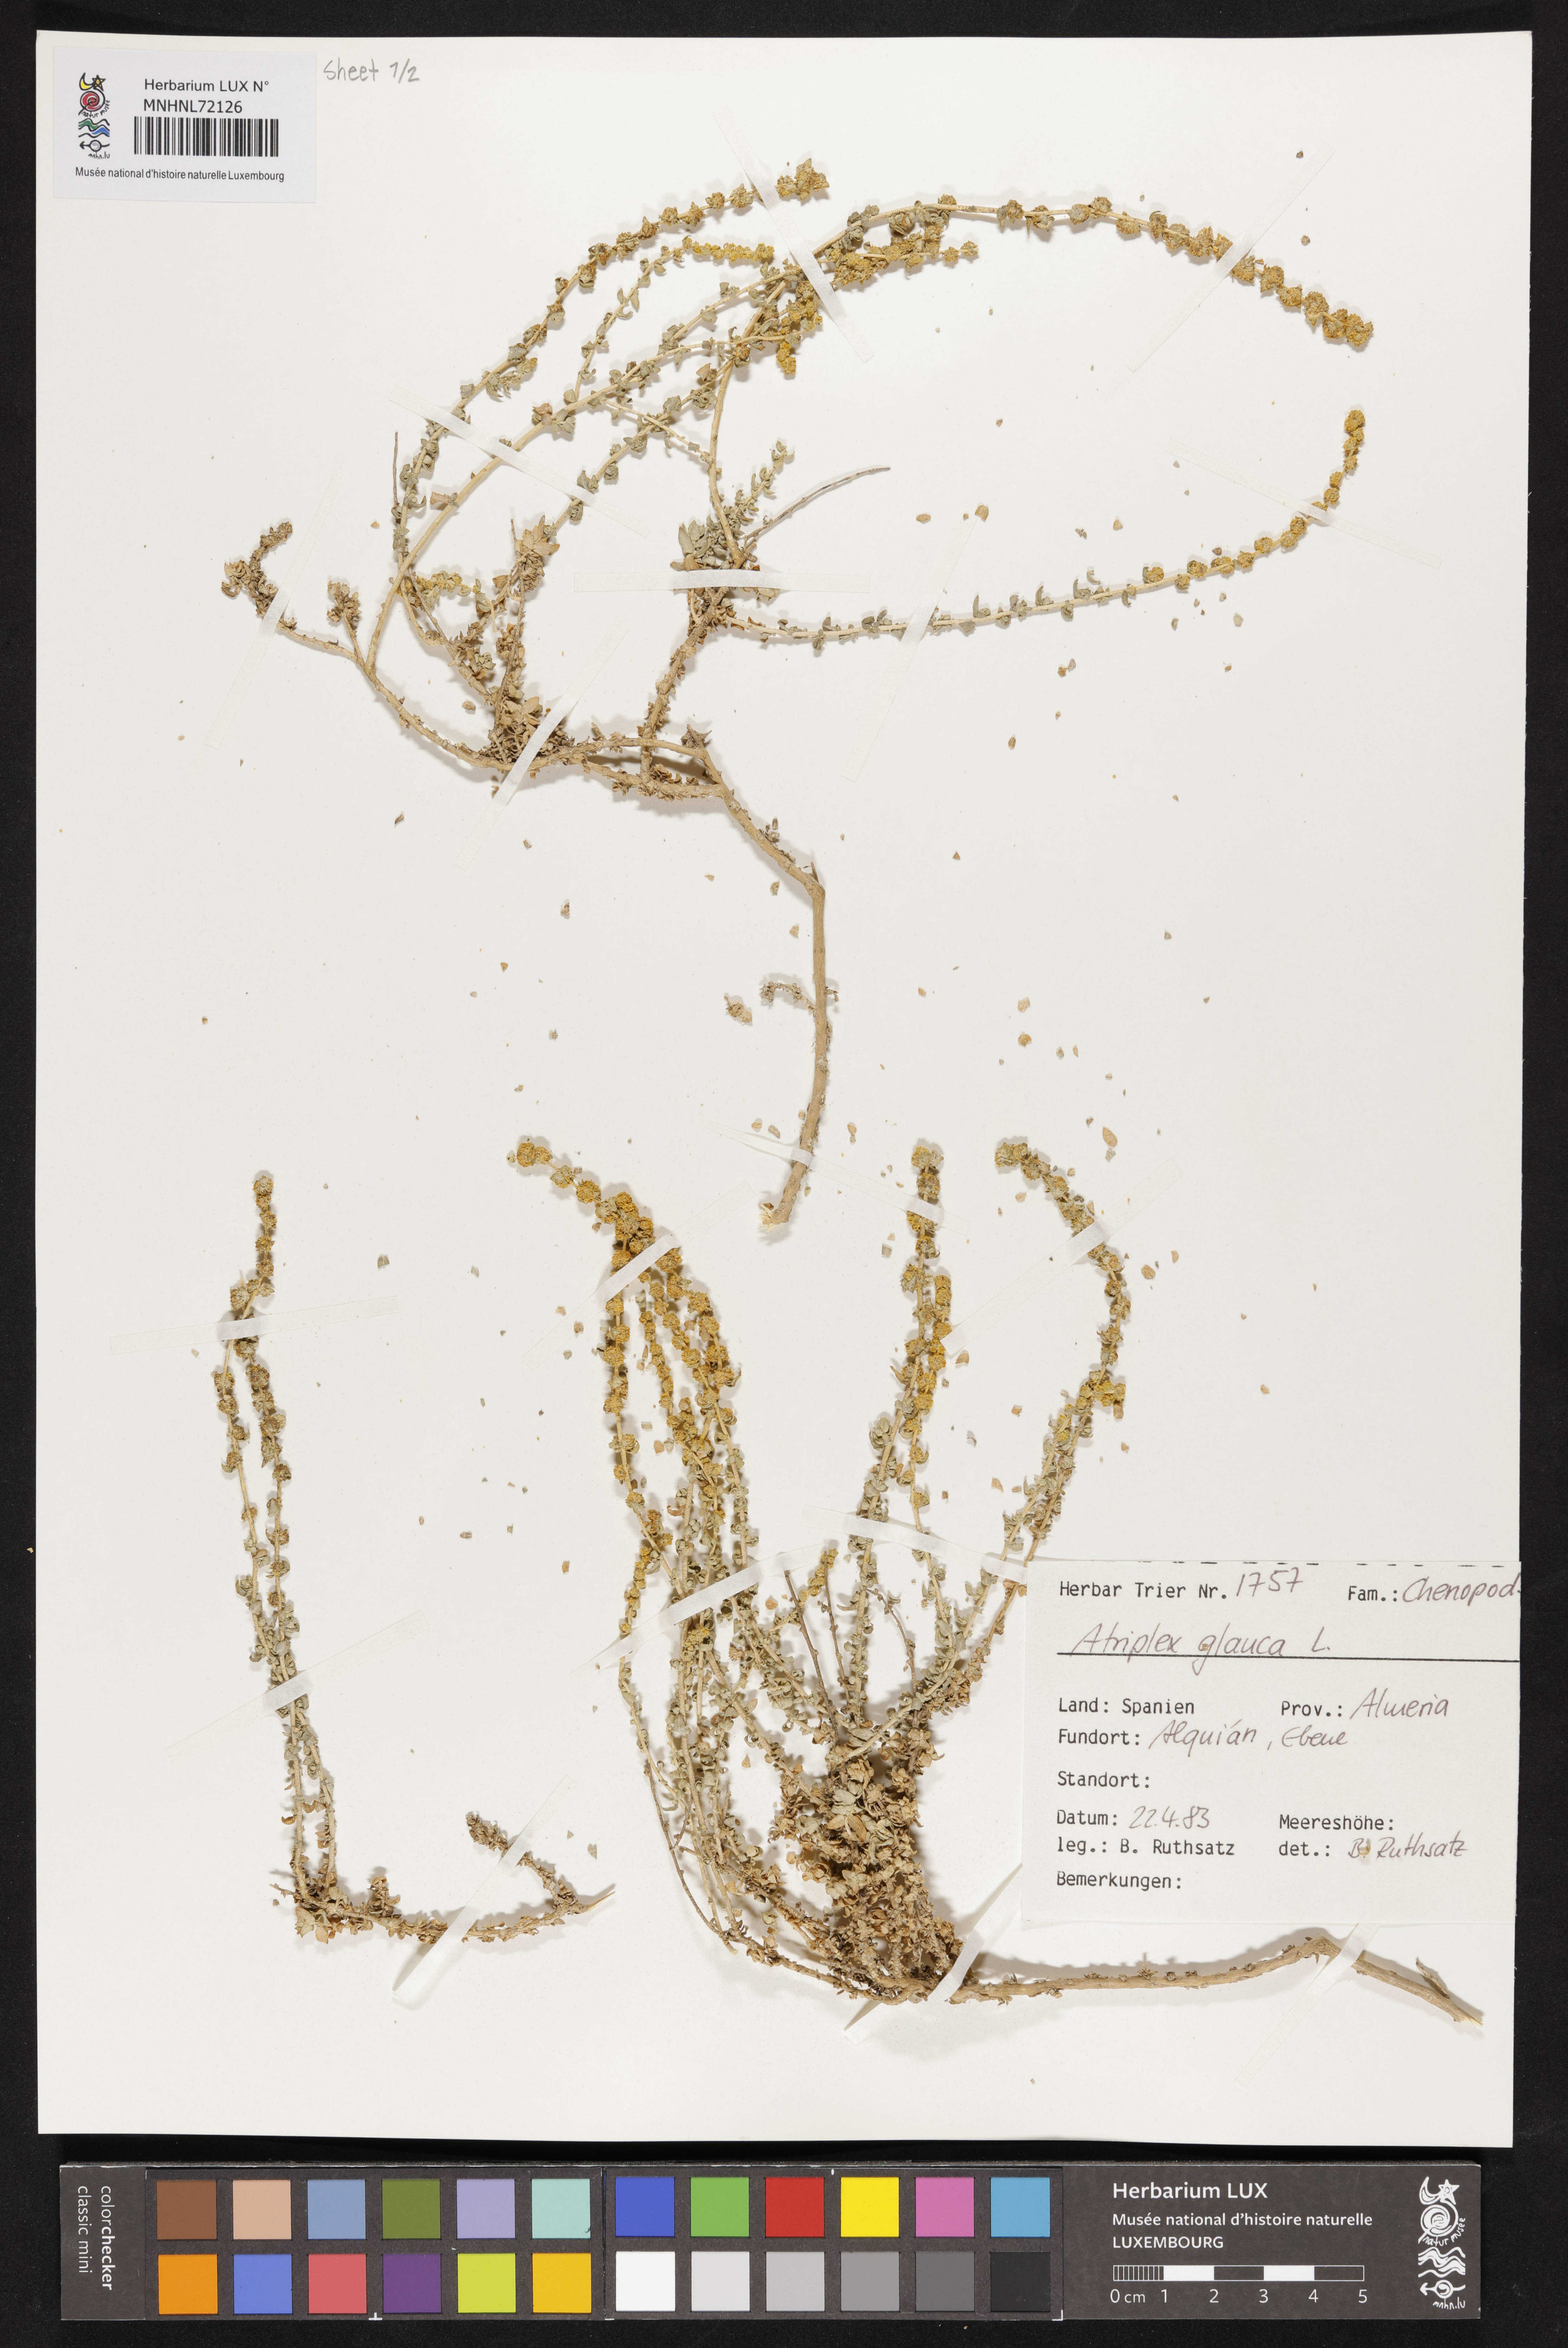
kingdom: Plantae
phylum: Tracheophyta
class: Magnoliopsida
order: Caryophyllales
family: Amaranthaceae
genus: Atriplex
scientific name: Atriplex glauca
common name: Waxy saltbush
